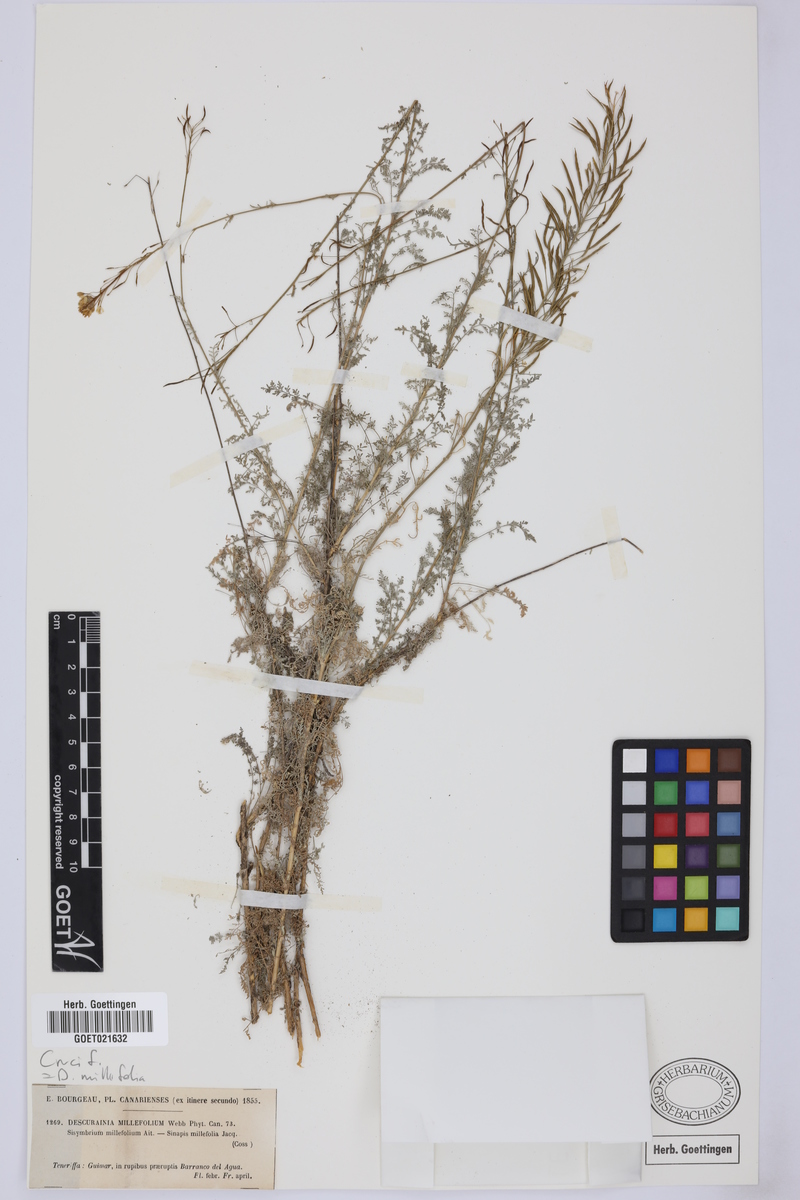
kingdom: Plantae
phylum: Tracheophyta
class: Magnoliopsida
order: Brassicales
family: Brassicaceae
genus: Descurainia
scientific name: Descurainia millefolia
